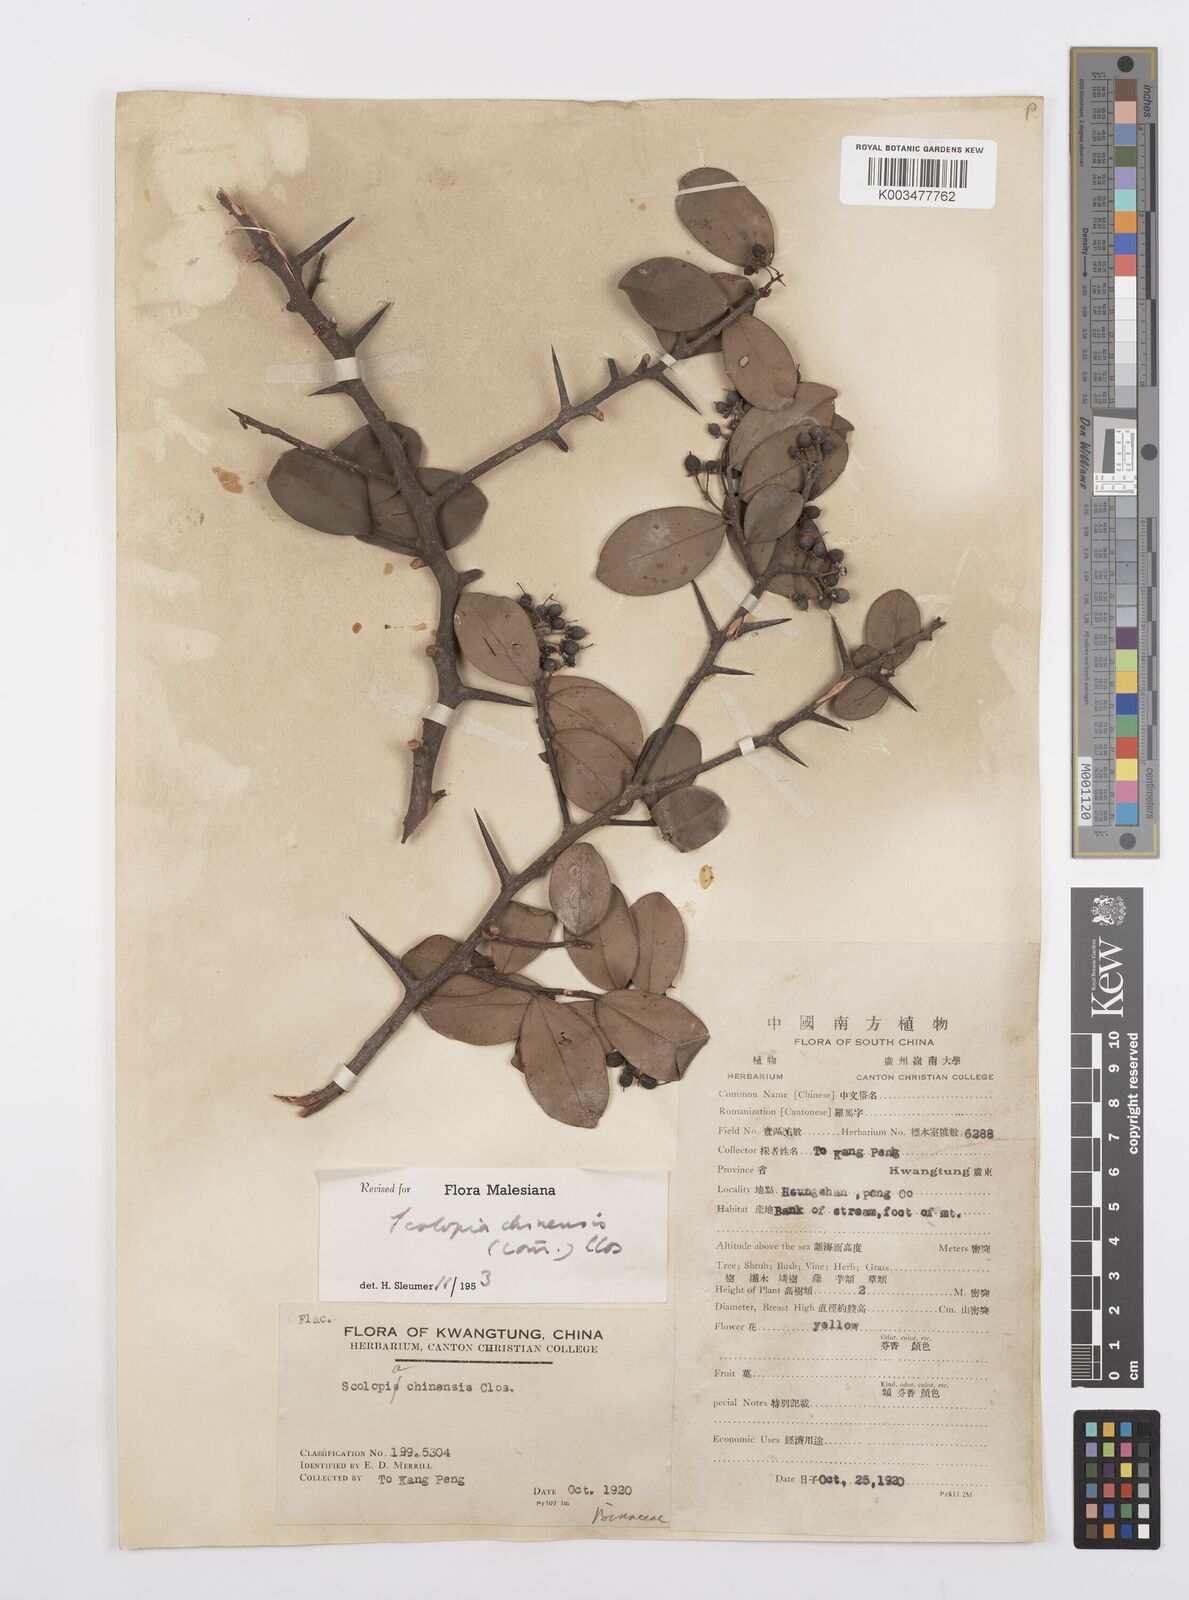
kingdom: Plantae
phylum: Tracheophyta
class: Magnoliopsida
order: Malpighiales
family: Salicaceae
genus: Scolopia
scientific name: Scolopia chinensis
